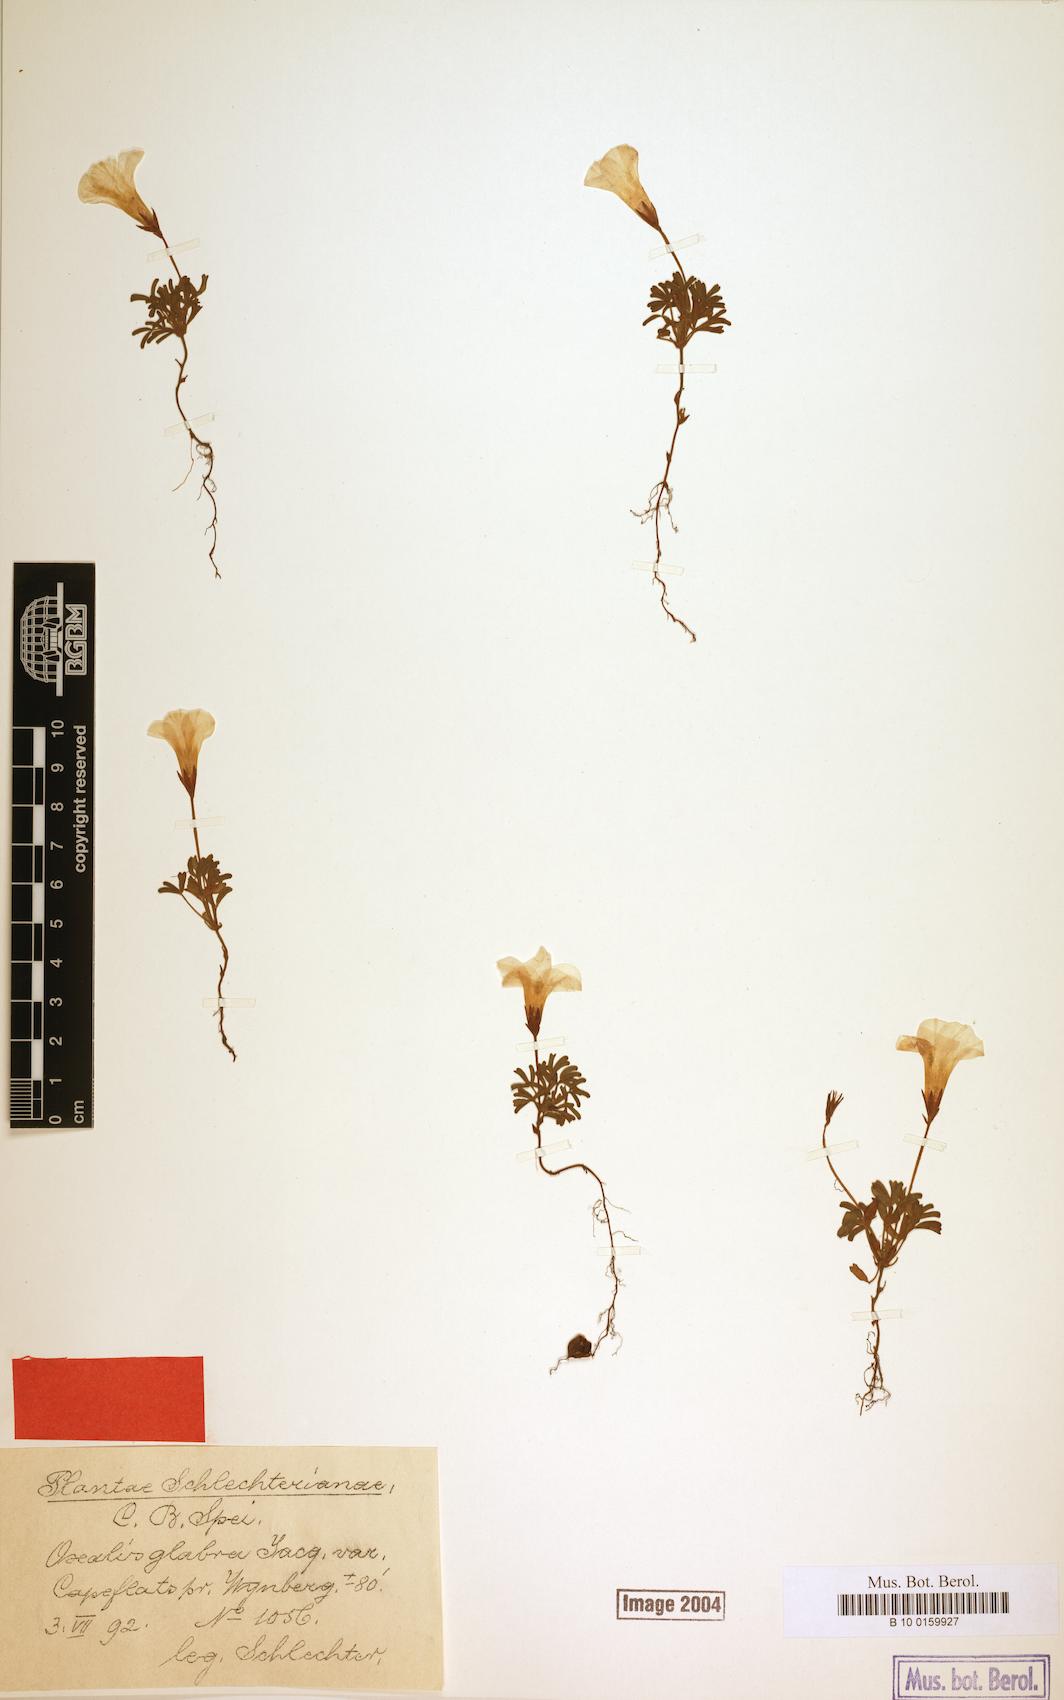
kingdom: Plantae
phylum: Tracheophyta
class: Magnoliopsida
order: Oxalidales
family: Oxalidaceae
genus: Oxalis
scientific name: Oxalis glabra
